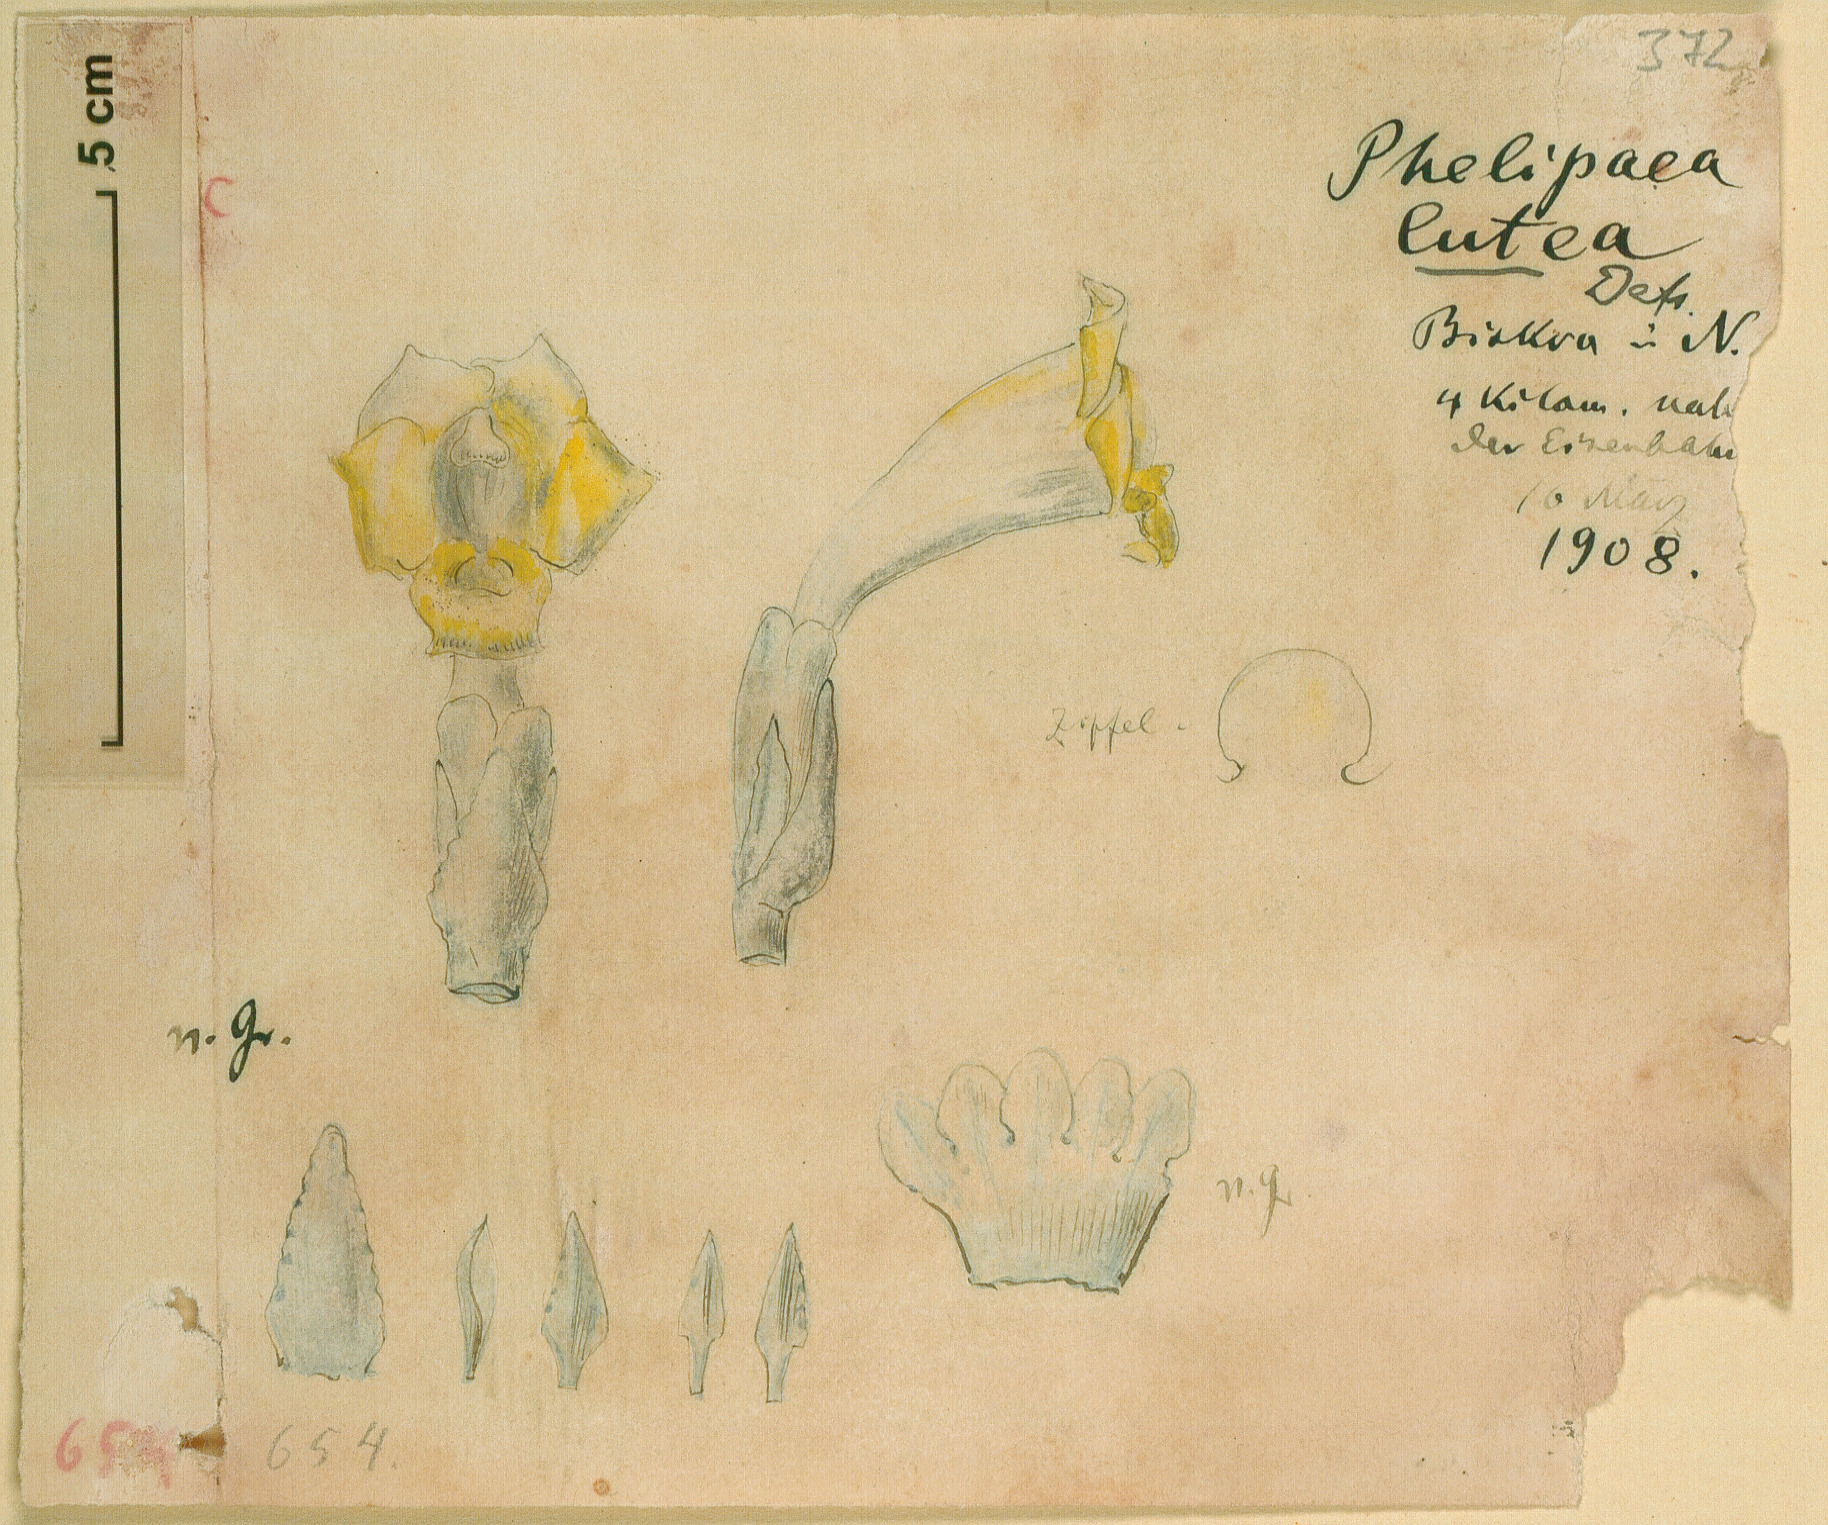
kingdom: Plantae
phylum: Tracheophyta
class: Magnoliopsida
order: Lamiales
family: Orobanchaceae
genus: Cistanche
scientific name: Cistanche phelypaea
